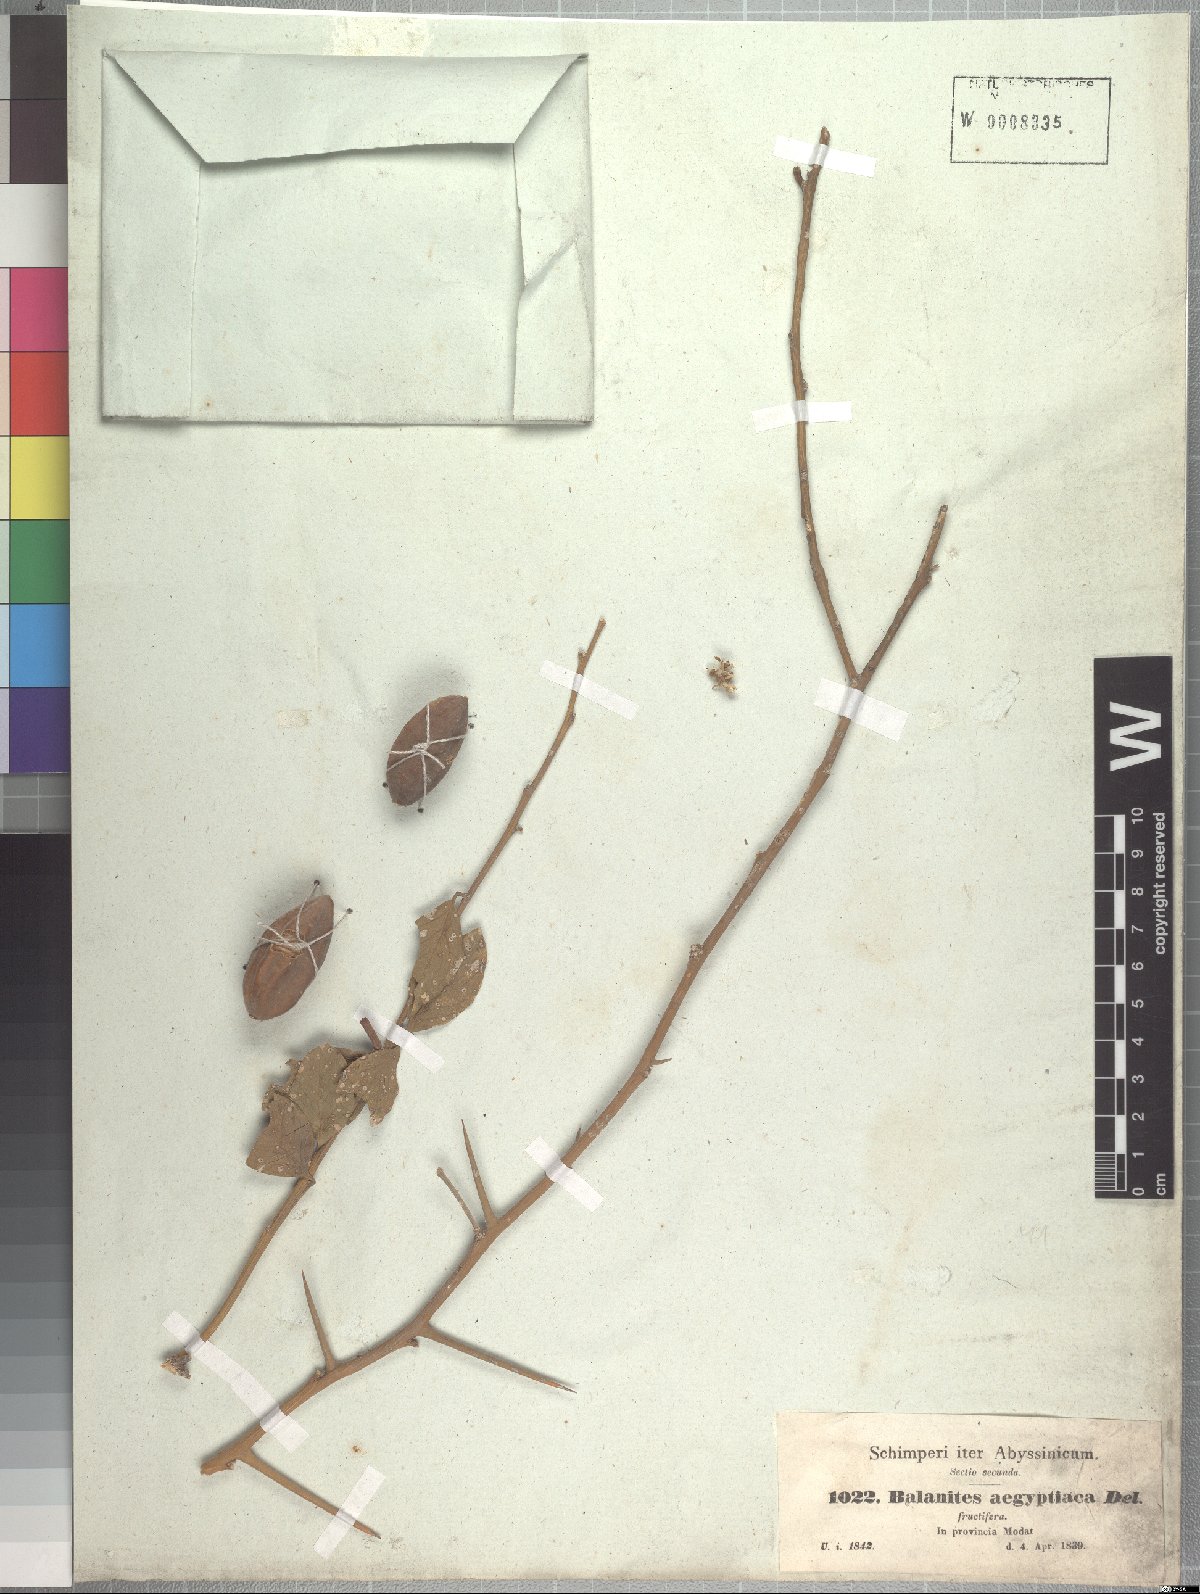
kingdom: Plantae
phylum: Tracheophyta
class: Magnoliopsida
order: Zygophyllales
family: Zygophyllaceae
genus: Balanites
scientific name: Balanites aegyptiaca
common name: Balanites
